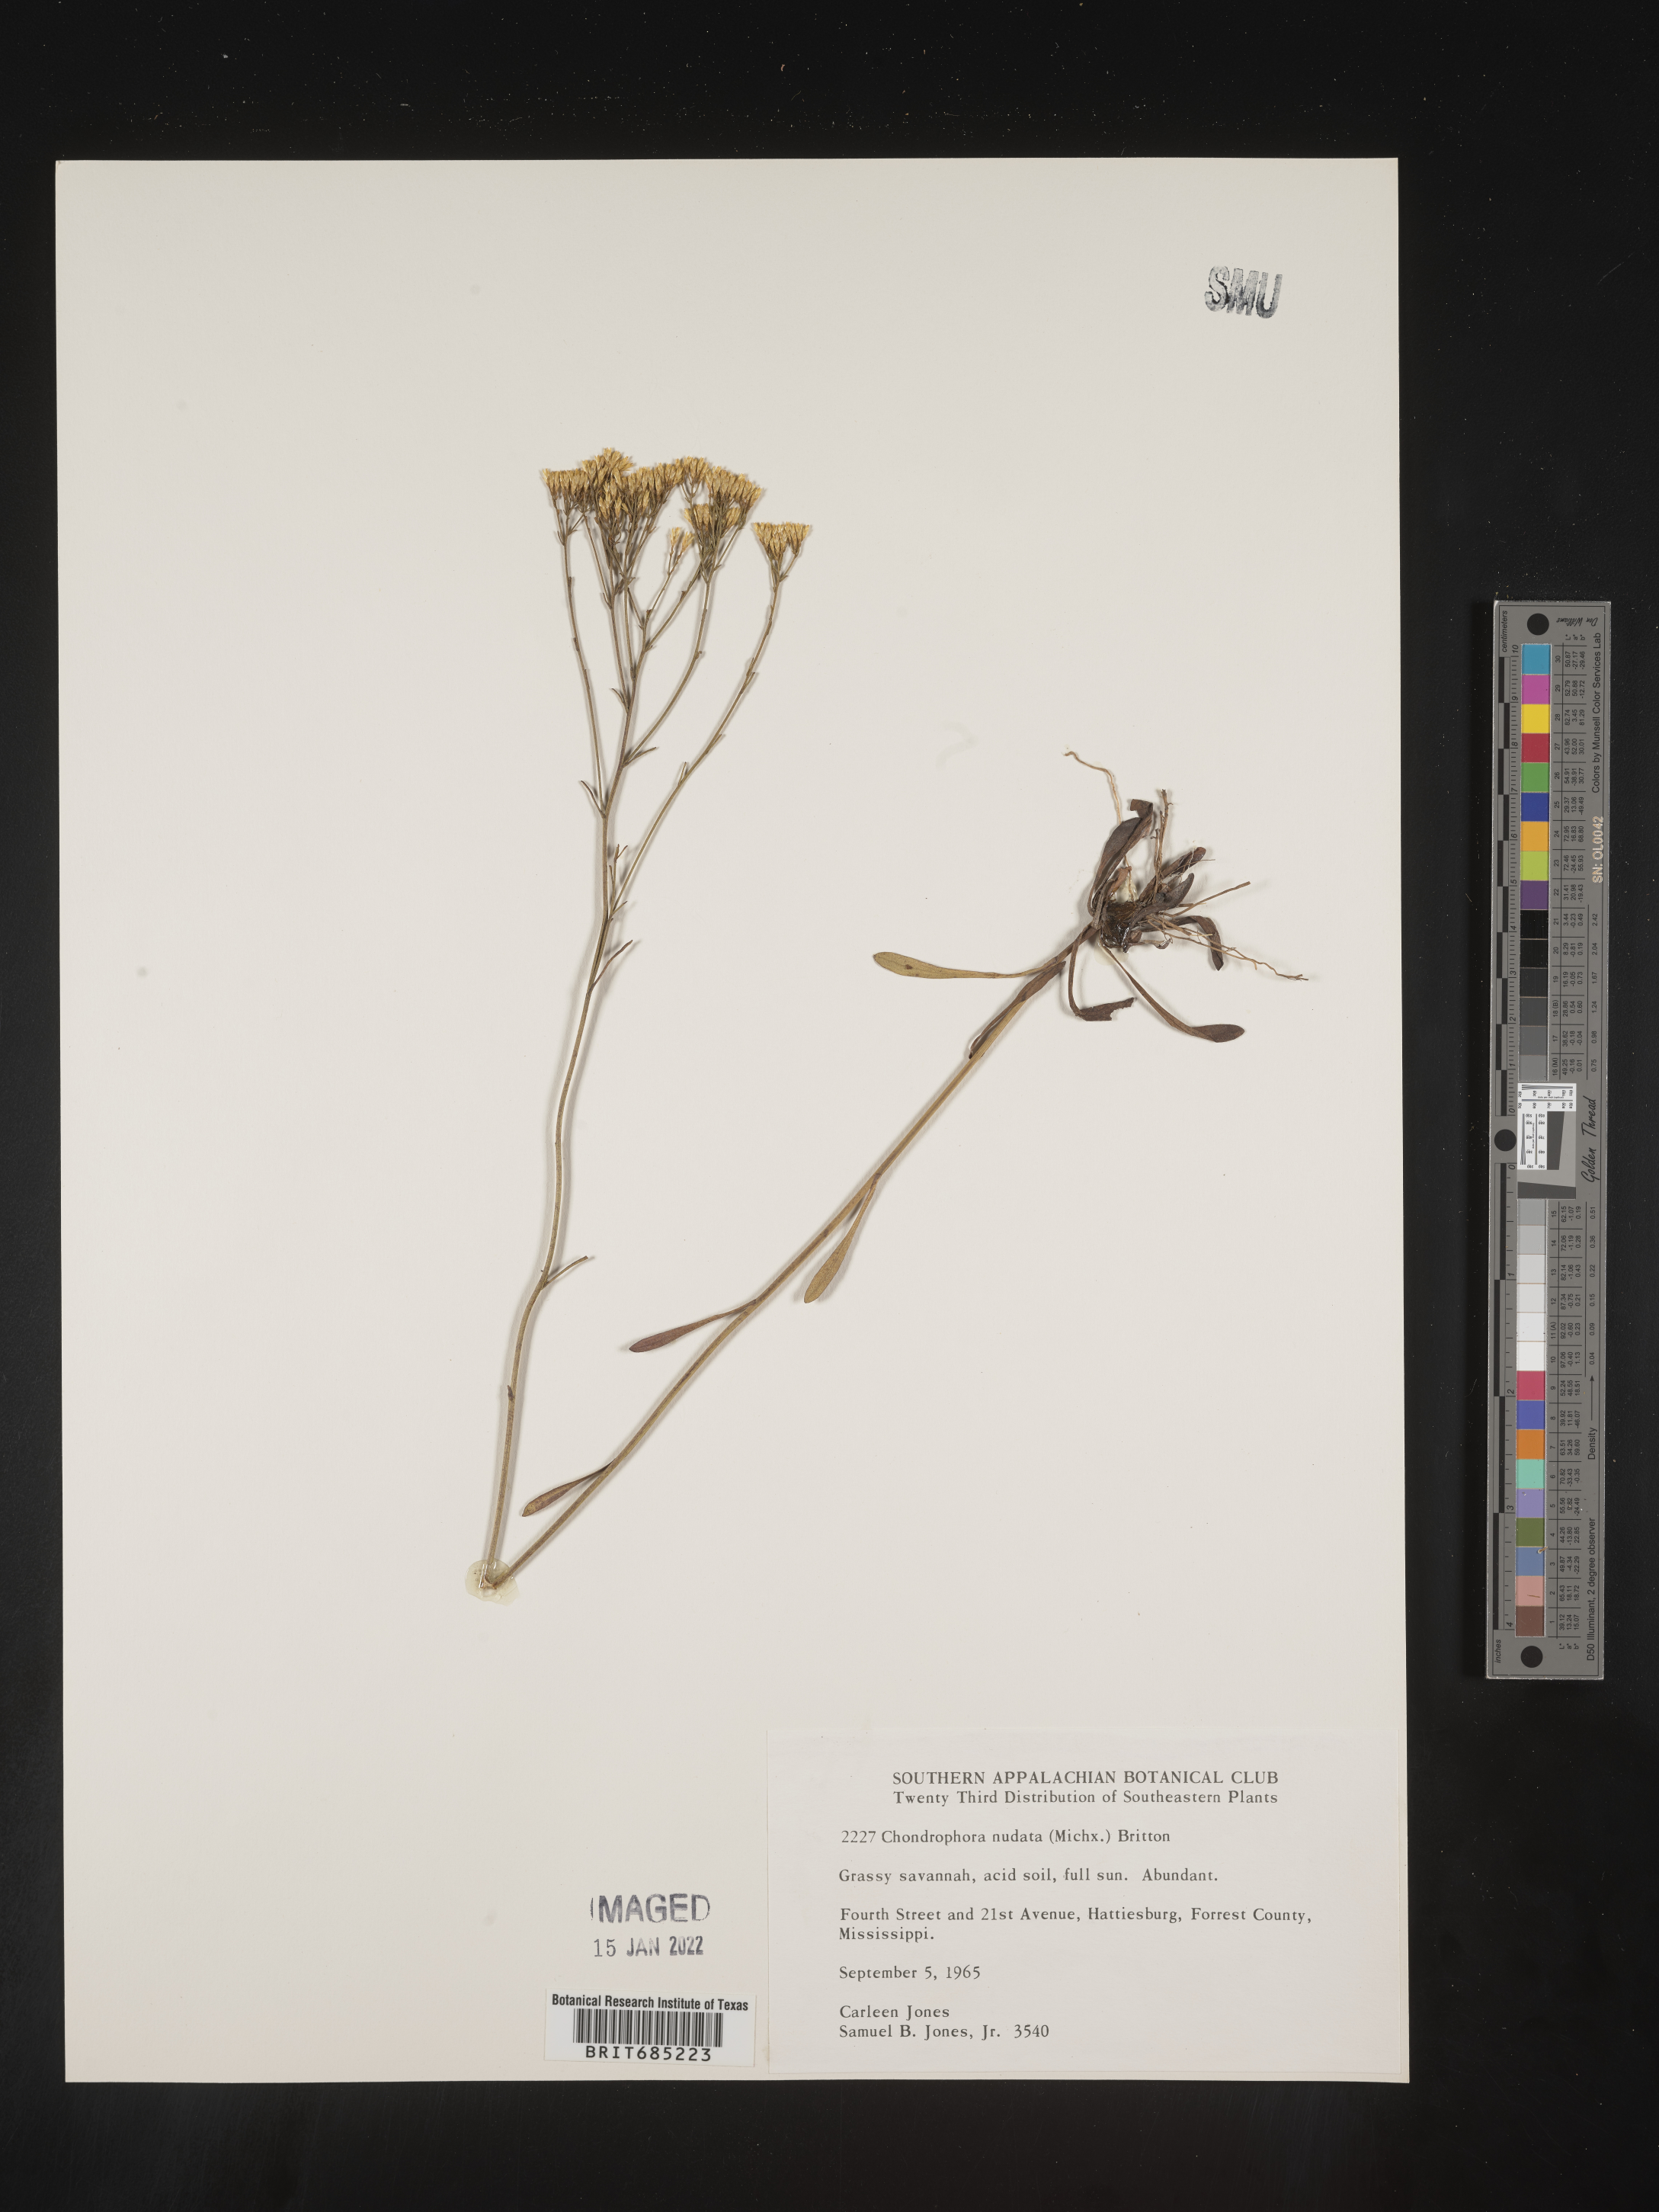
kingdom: Plantae
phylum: Tracheophyta
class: Magnoliopsida
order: Asterales
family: Asteraceae
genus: Bigelowia
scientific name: Bigelowia nudata
